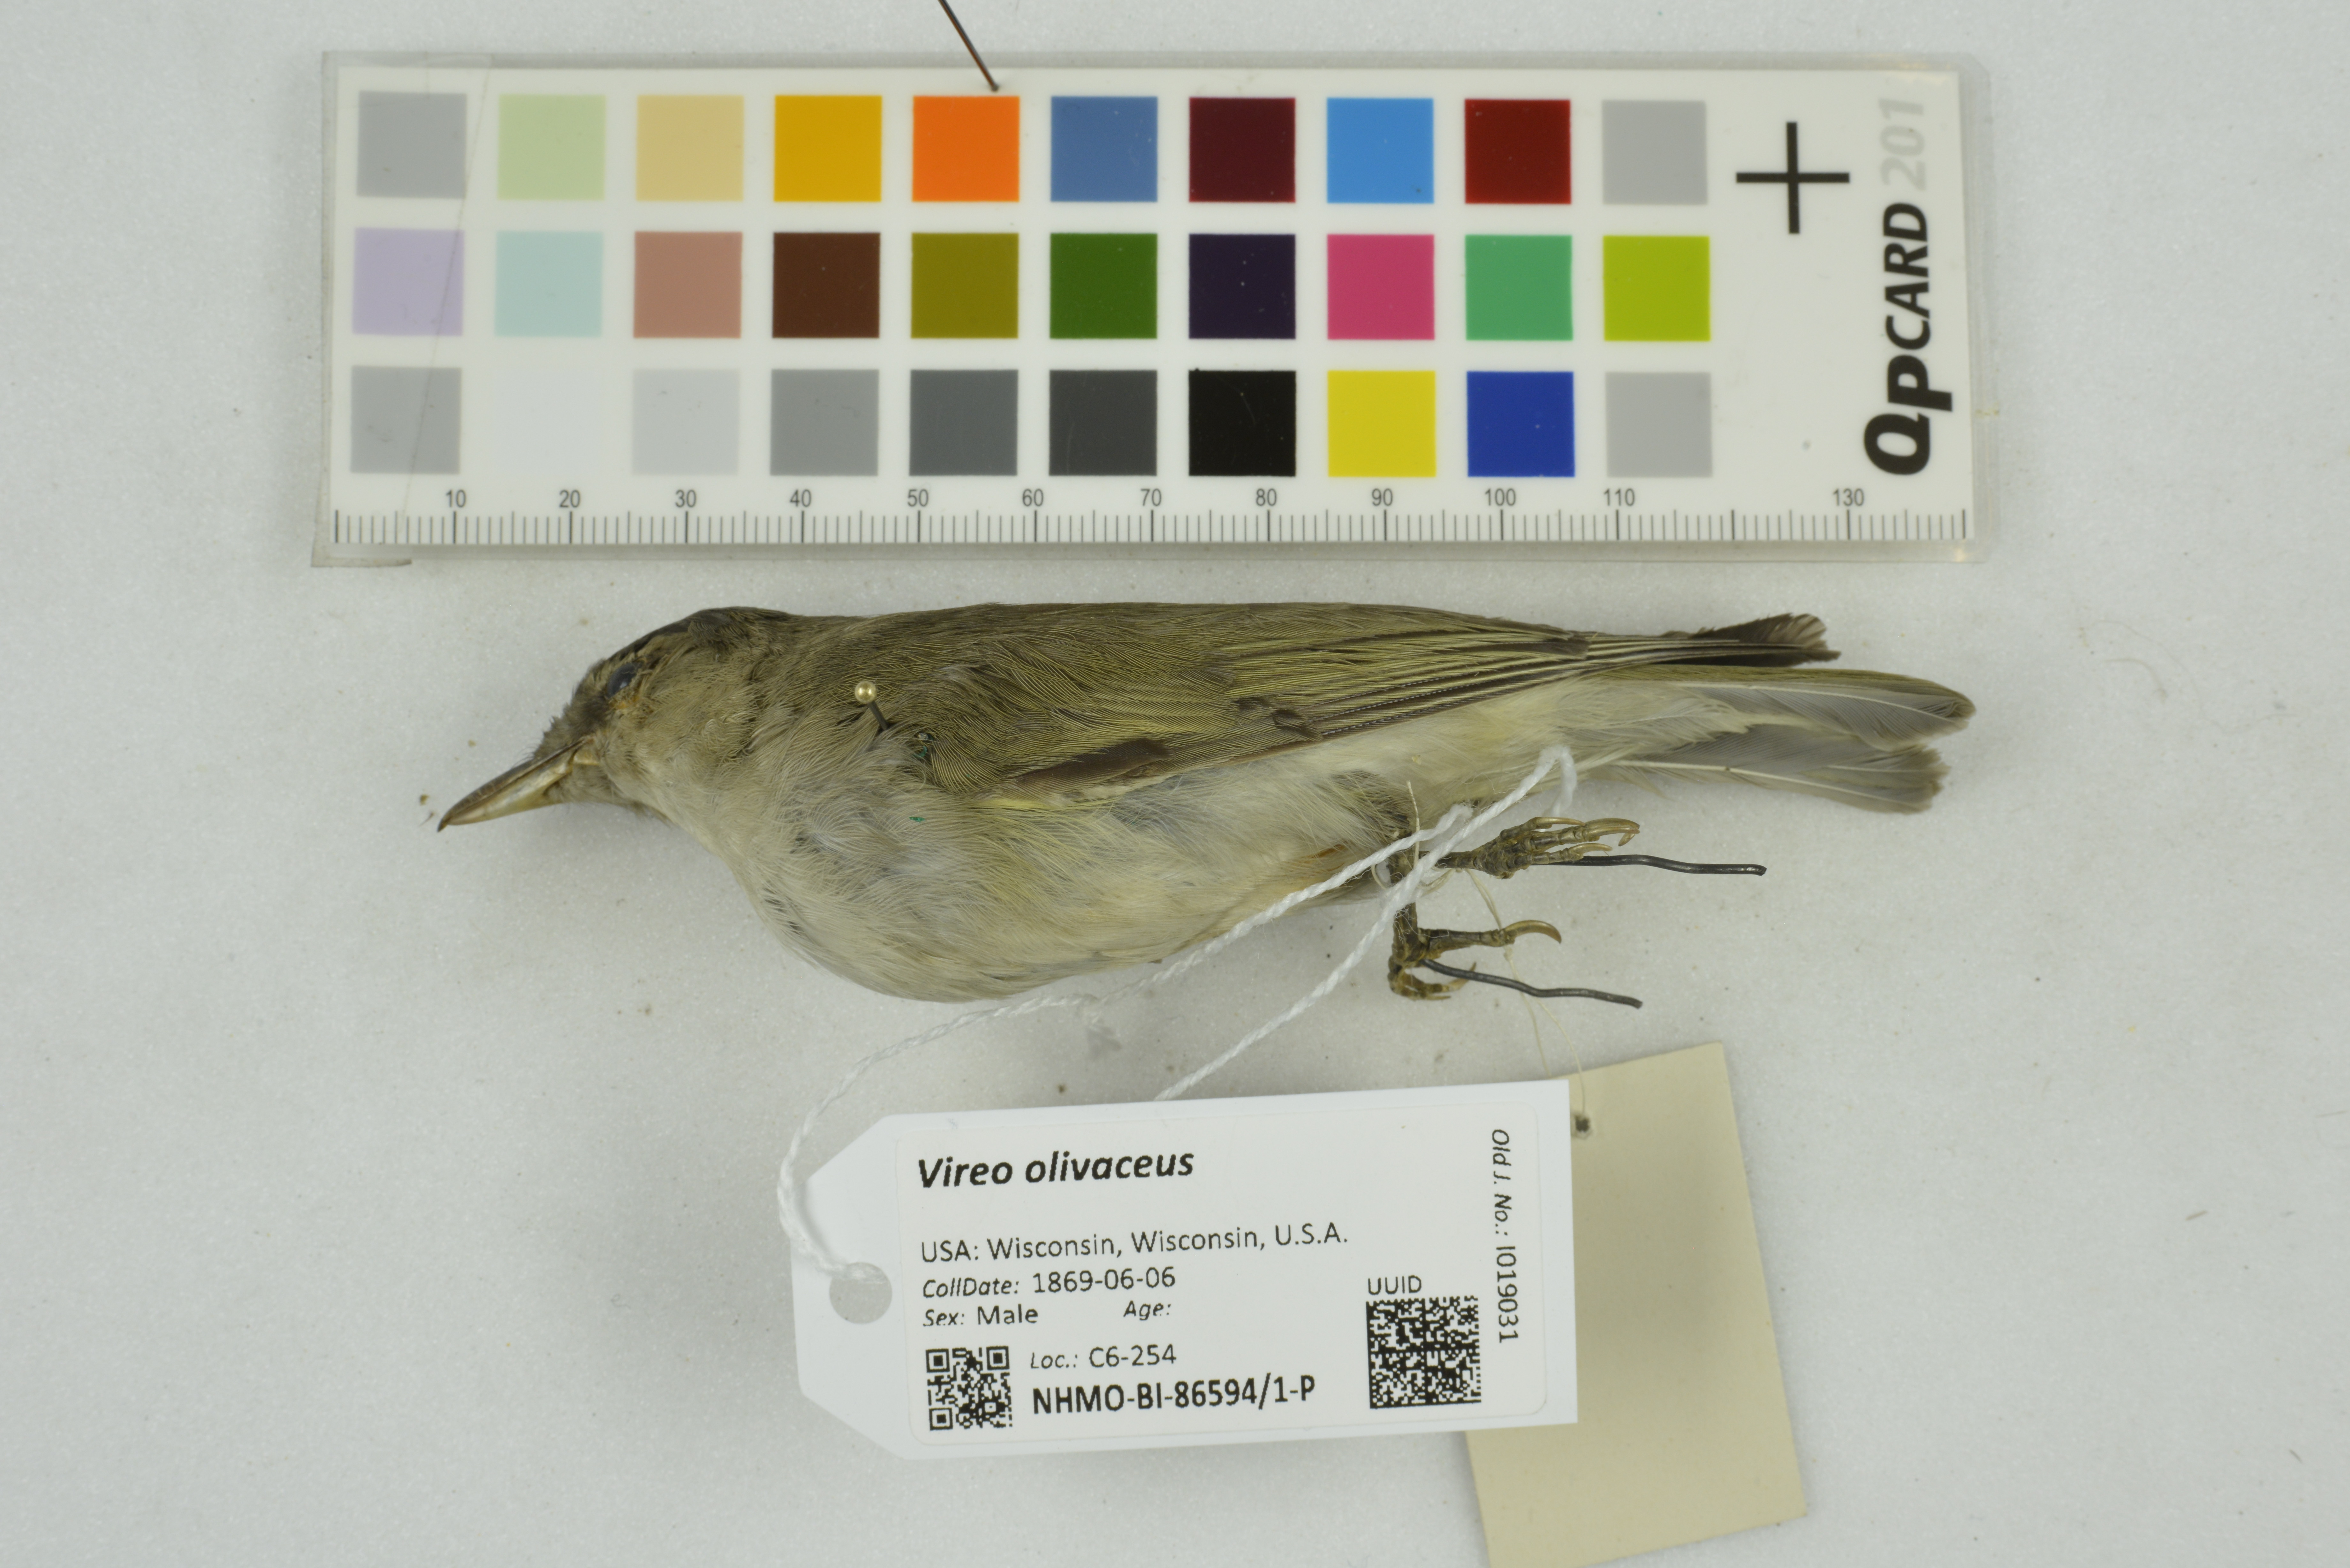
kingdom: Animalia
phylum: Chordata
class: Aves
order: Passeriformes
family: Vireonidae
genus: Vireo
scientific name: Vireo olivaceus
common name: Red-eyed vireo
